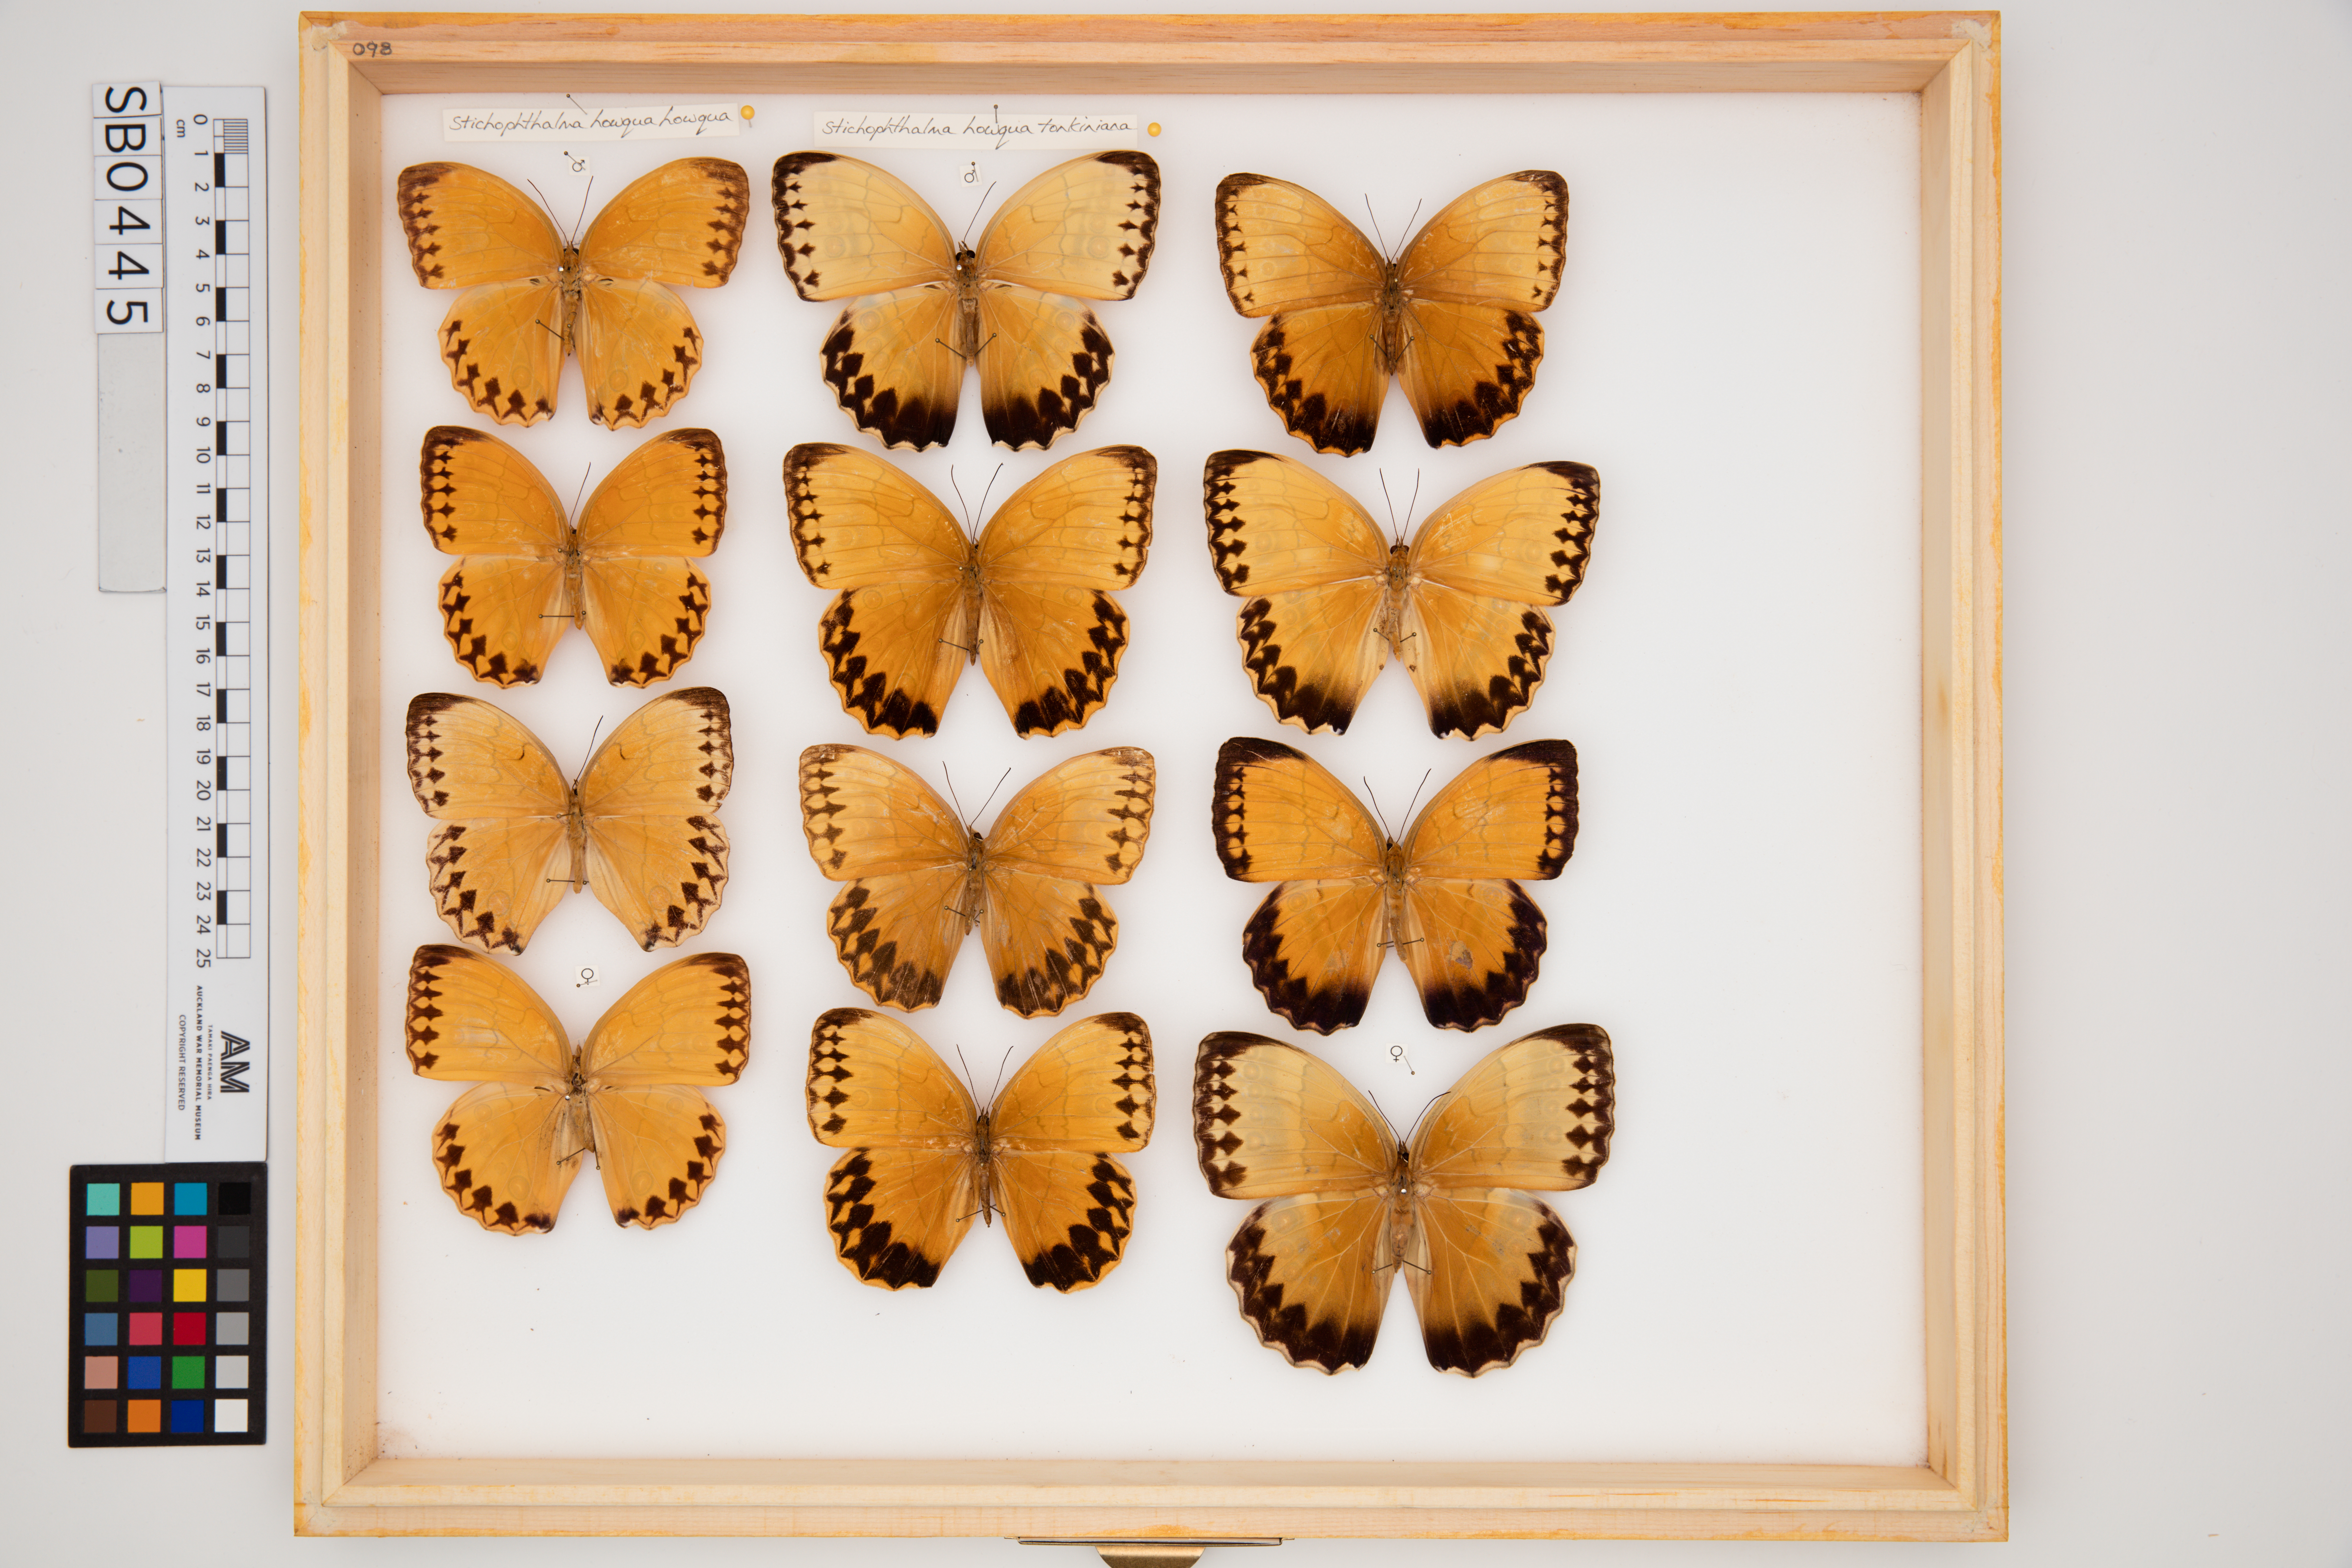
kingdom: Animalia
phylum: Arthropoda
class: Insecta
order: Lepidoptera
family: Nymphalidae
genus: Stichophthalma
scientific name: Stichophthalma howqua
